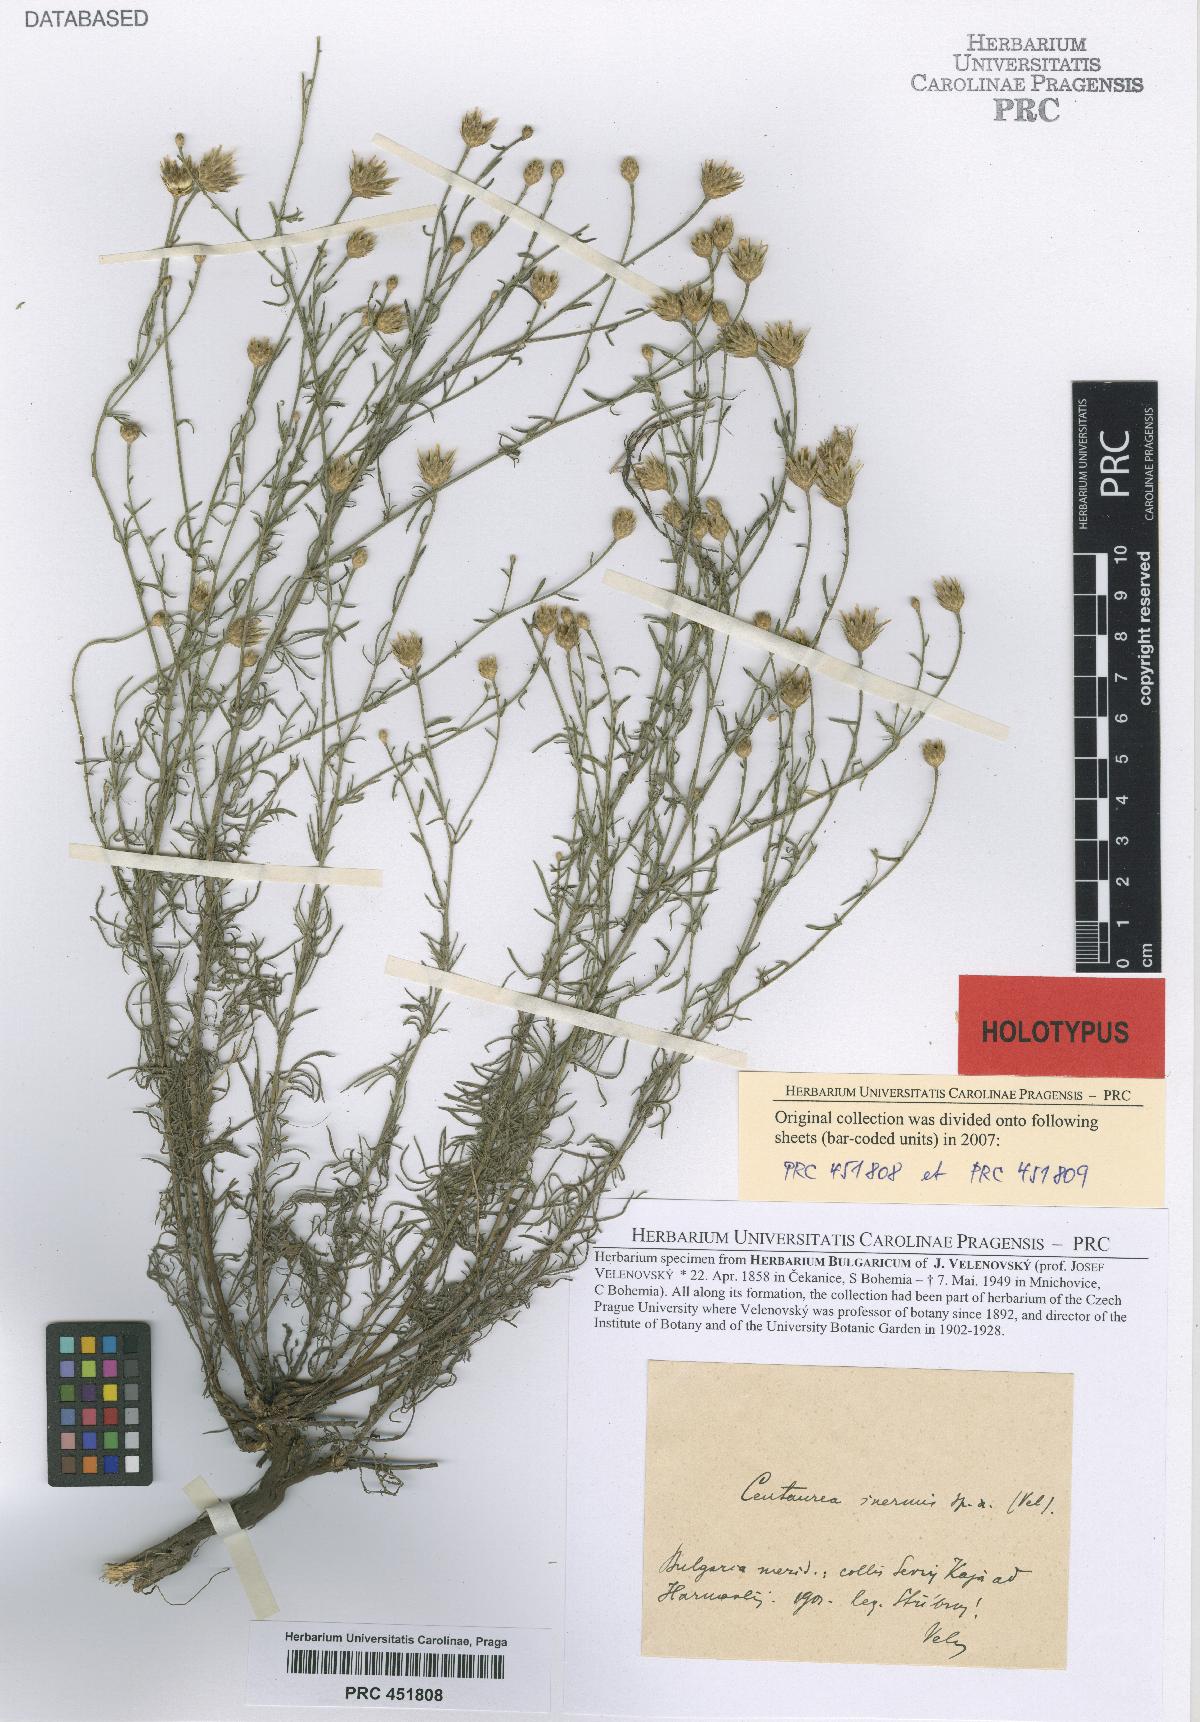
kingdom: Plantae
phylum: Tracheophyta
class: Magnoliopsida
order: Asterales
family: Asteraceae
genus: Centaurea
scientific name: Centaurea inermis
